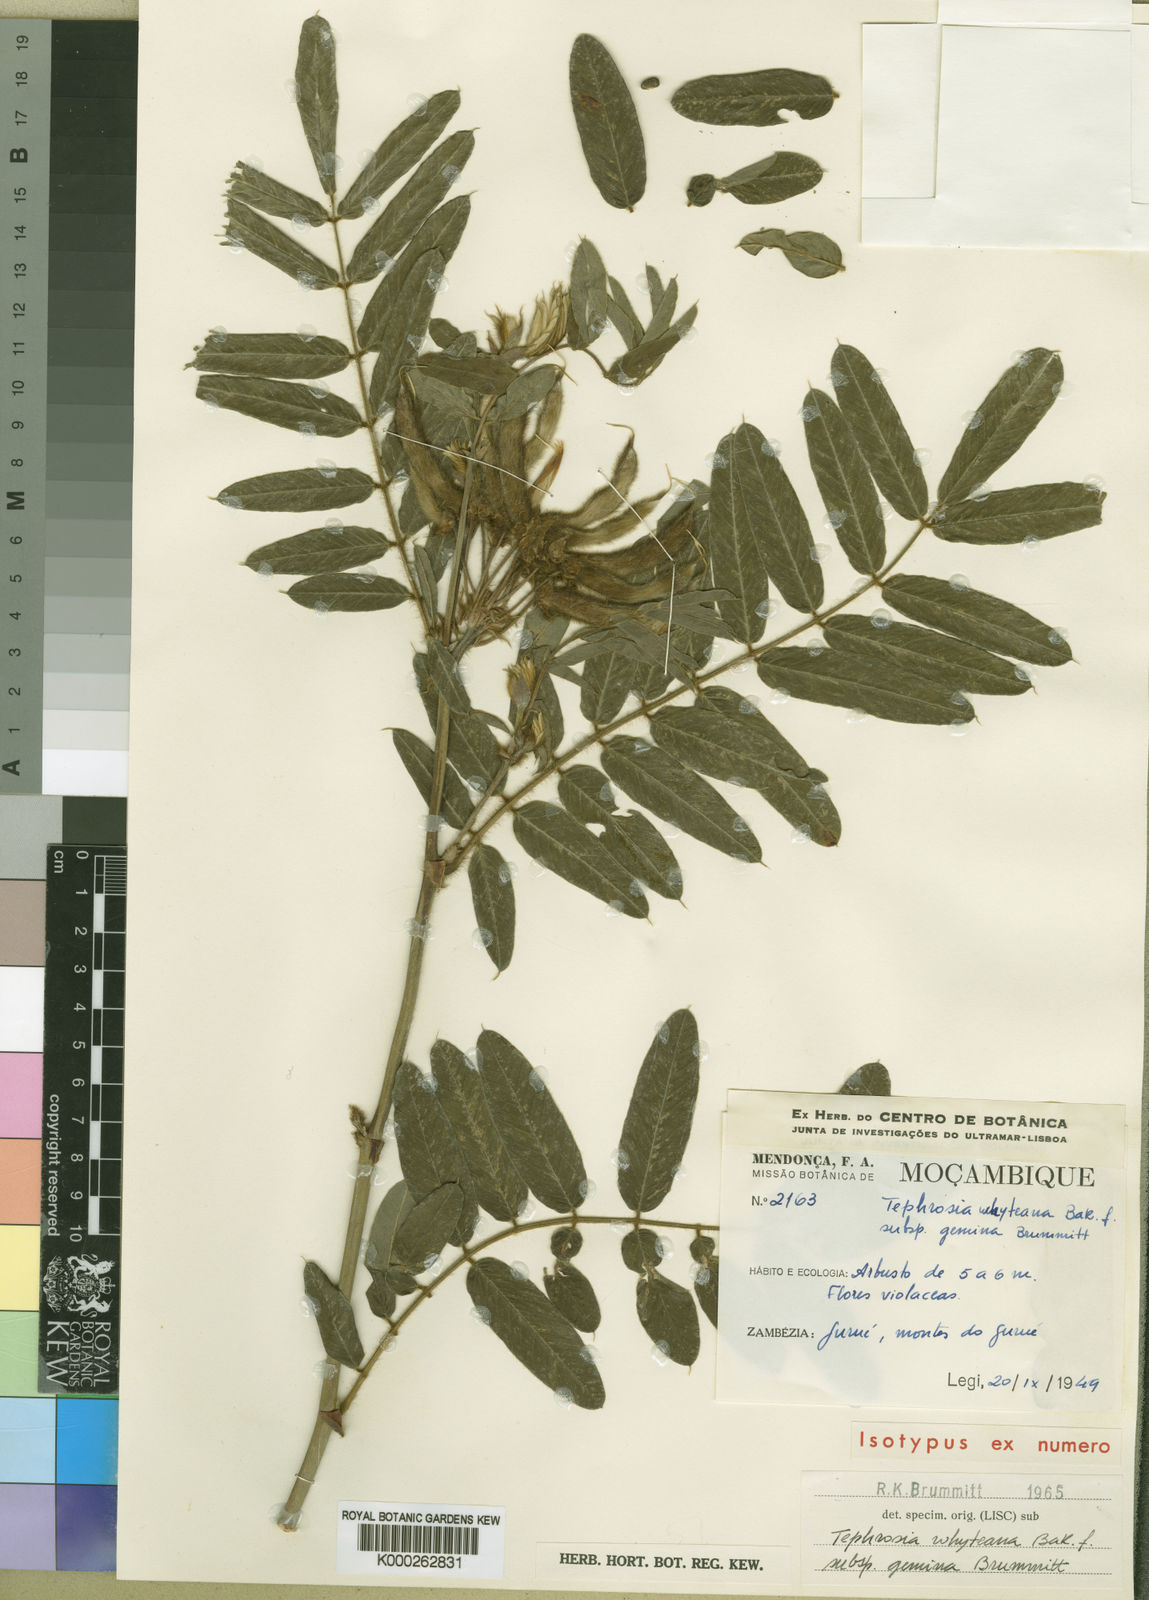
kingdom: Plantae
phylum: Tracheophyta
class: Magnoliopsida
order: Fabales
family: Fabaceae
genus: Tephrosia
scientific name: Tephrosia whyteana
